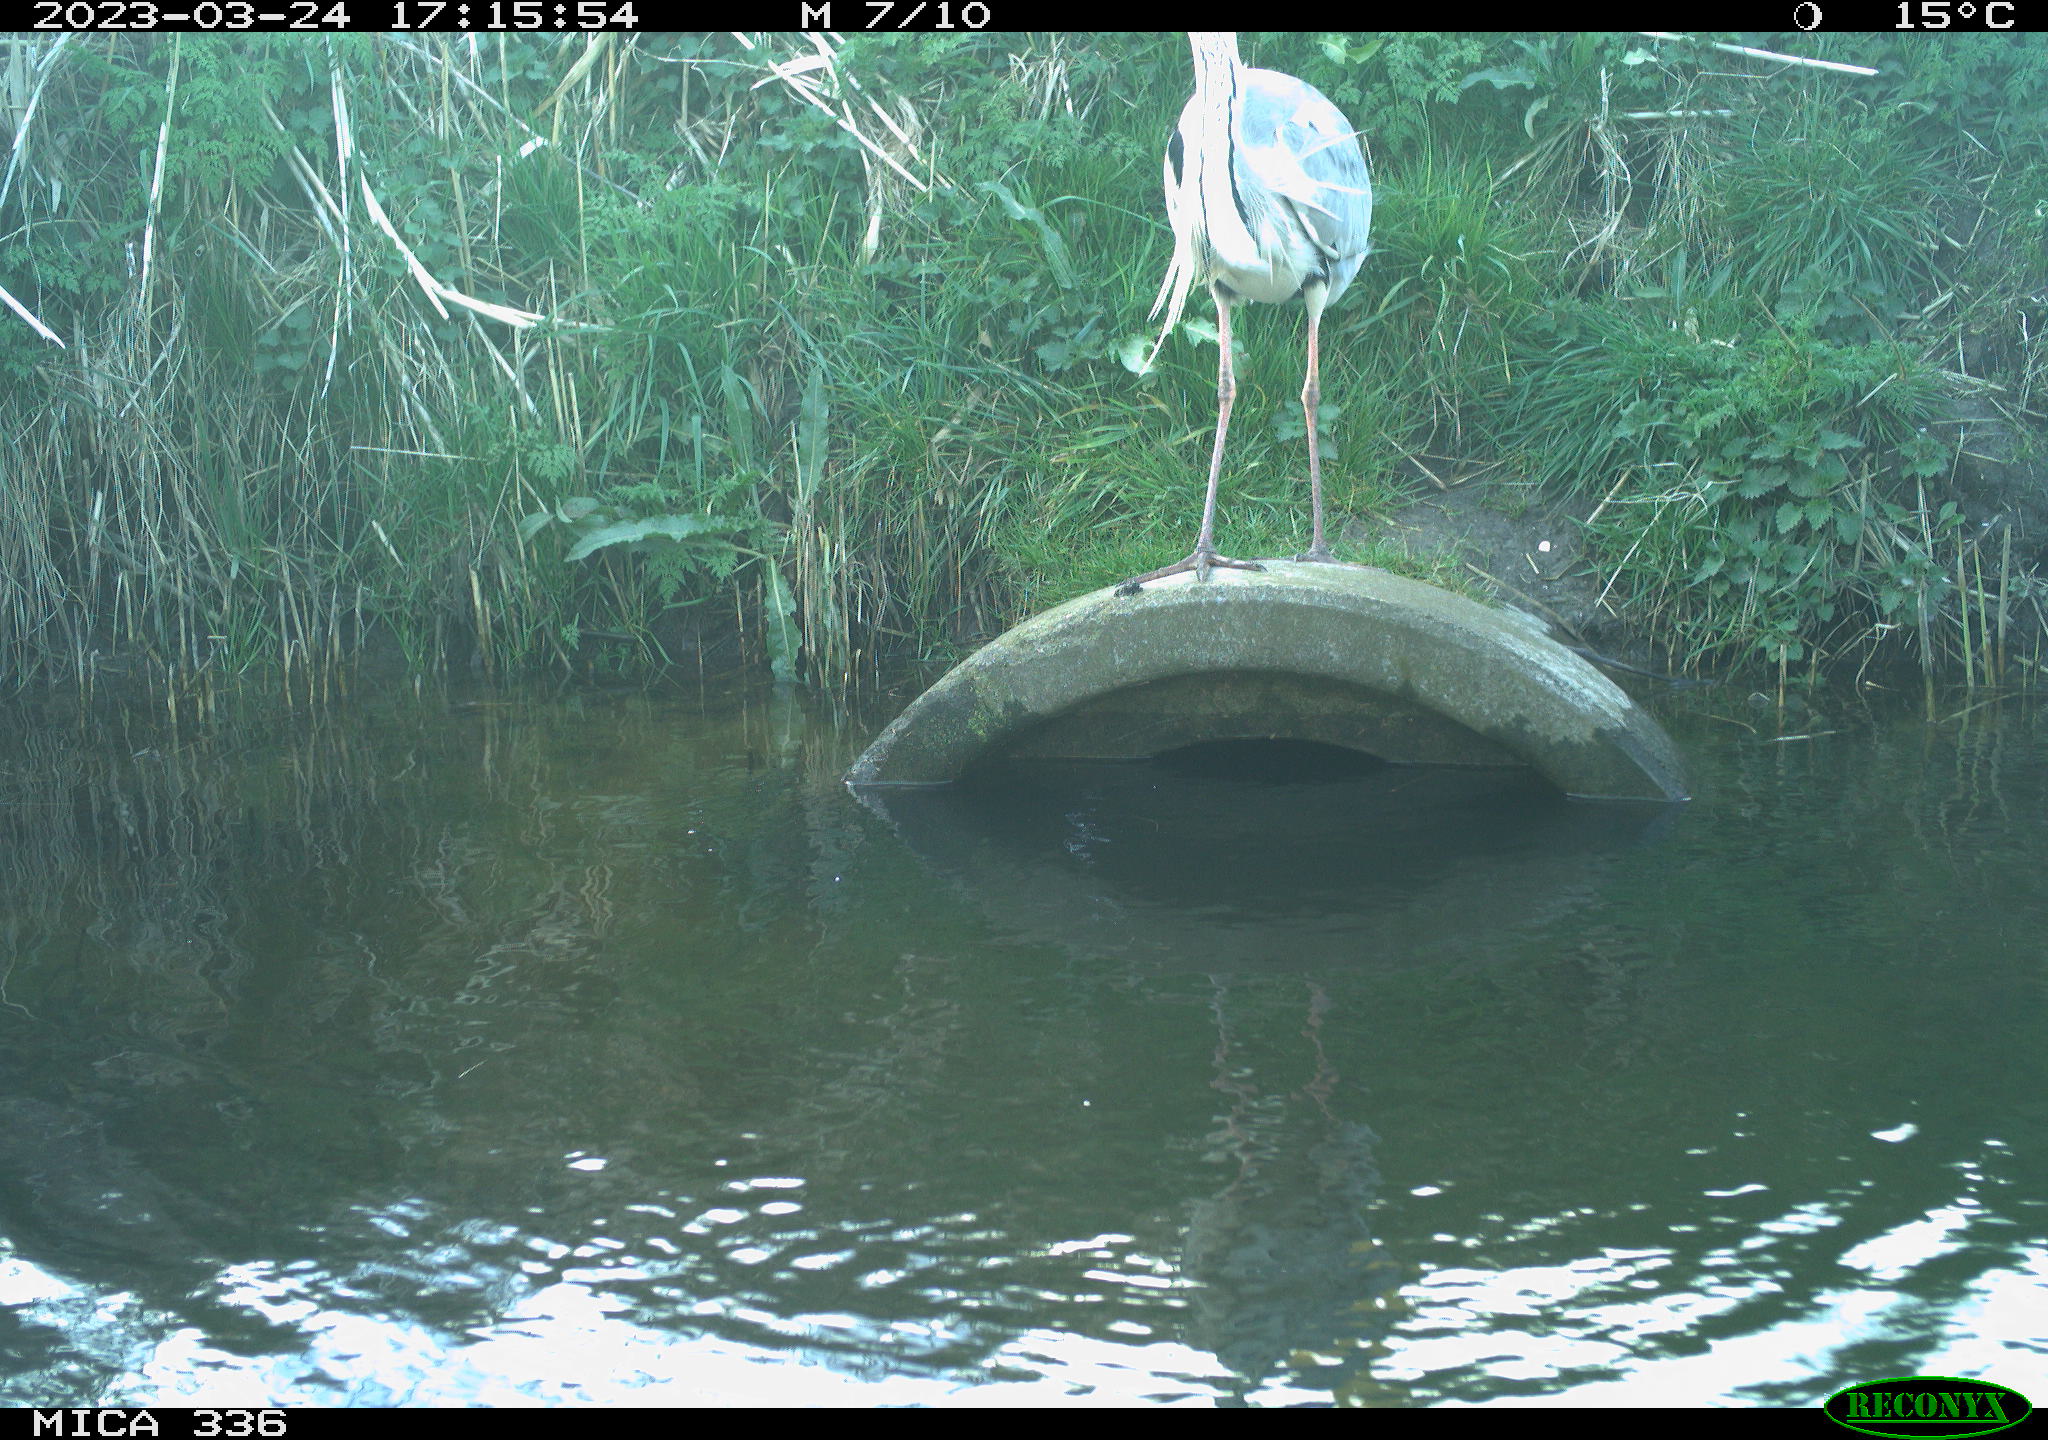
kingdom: Animalia
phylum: Chordata
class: Aves
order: Pelecaniformes
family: Ardeidae
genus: Ardea
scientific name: Ardea
